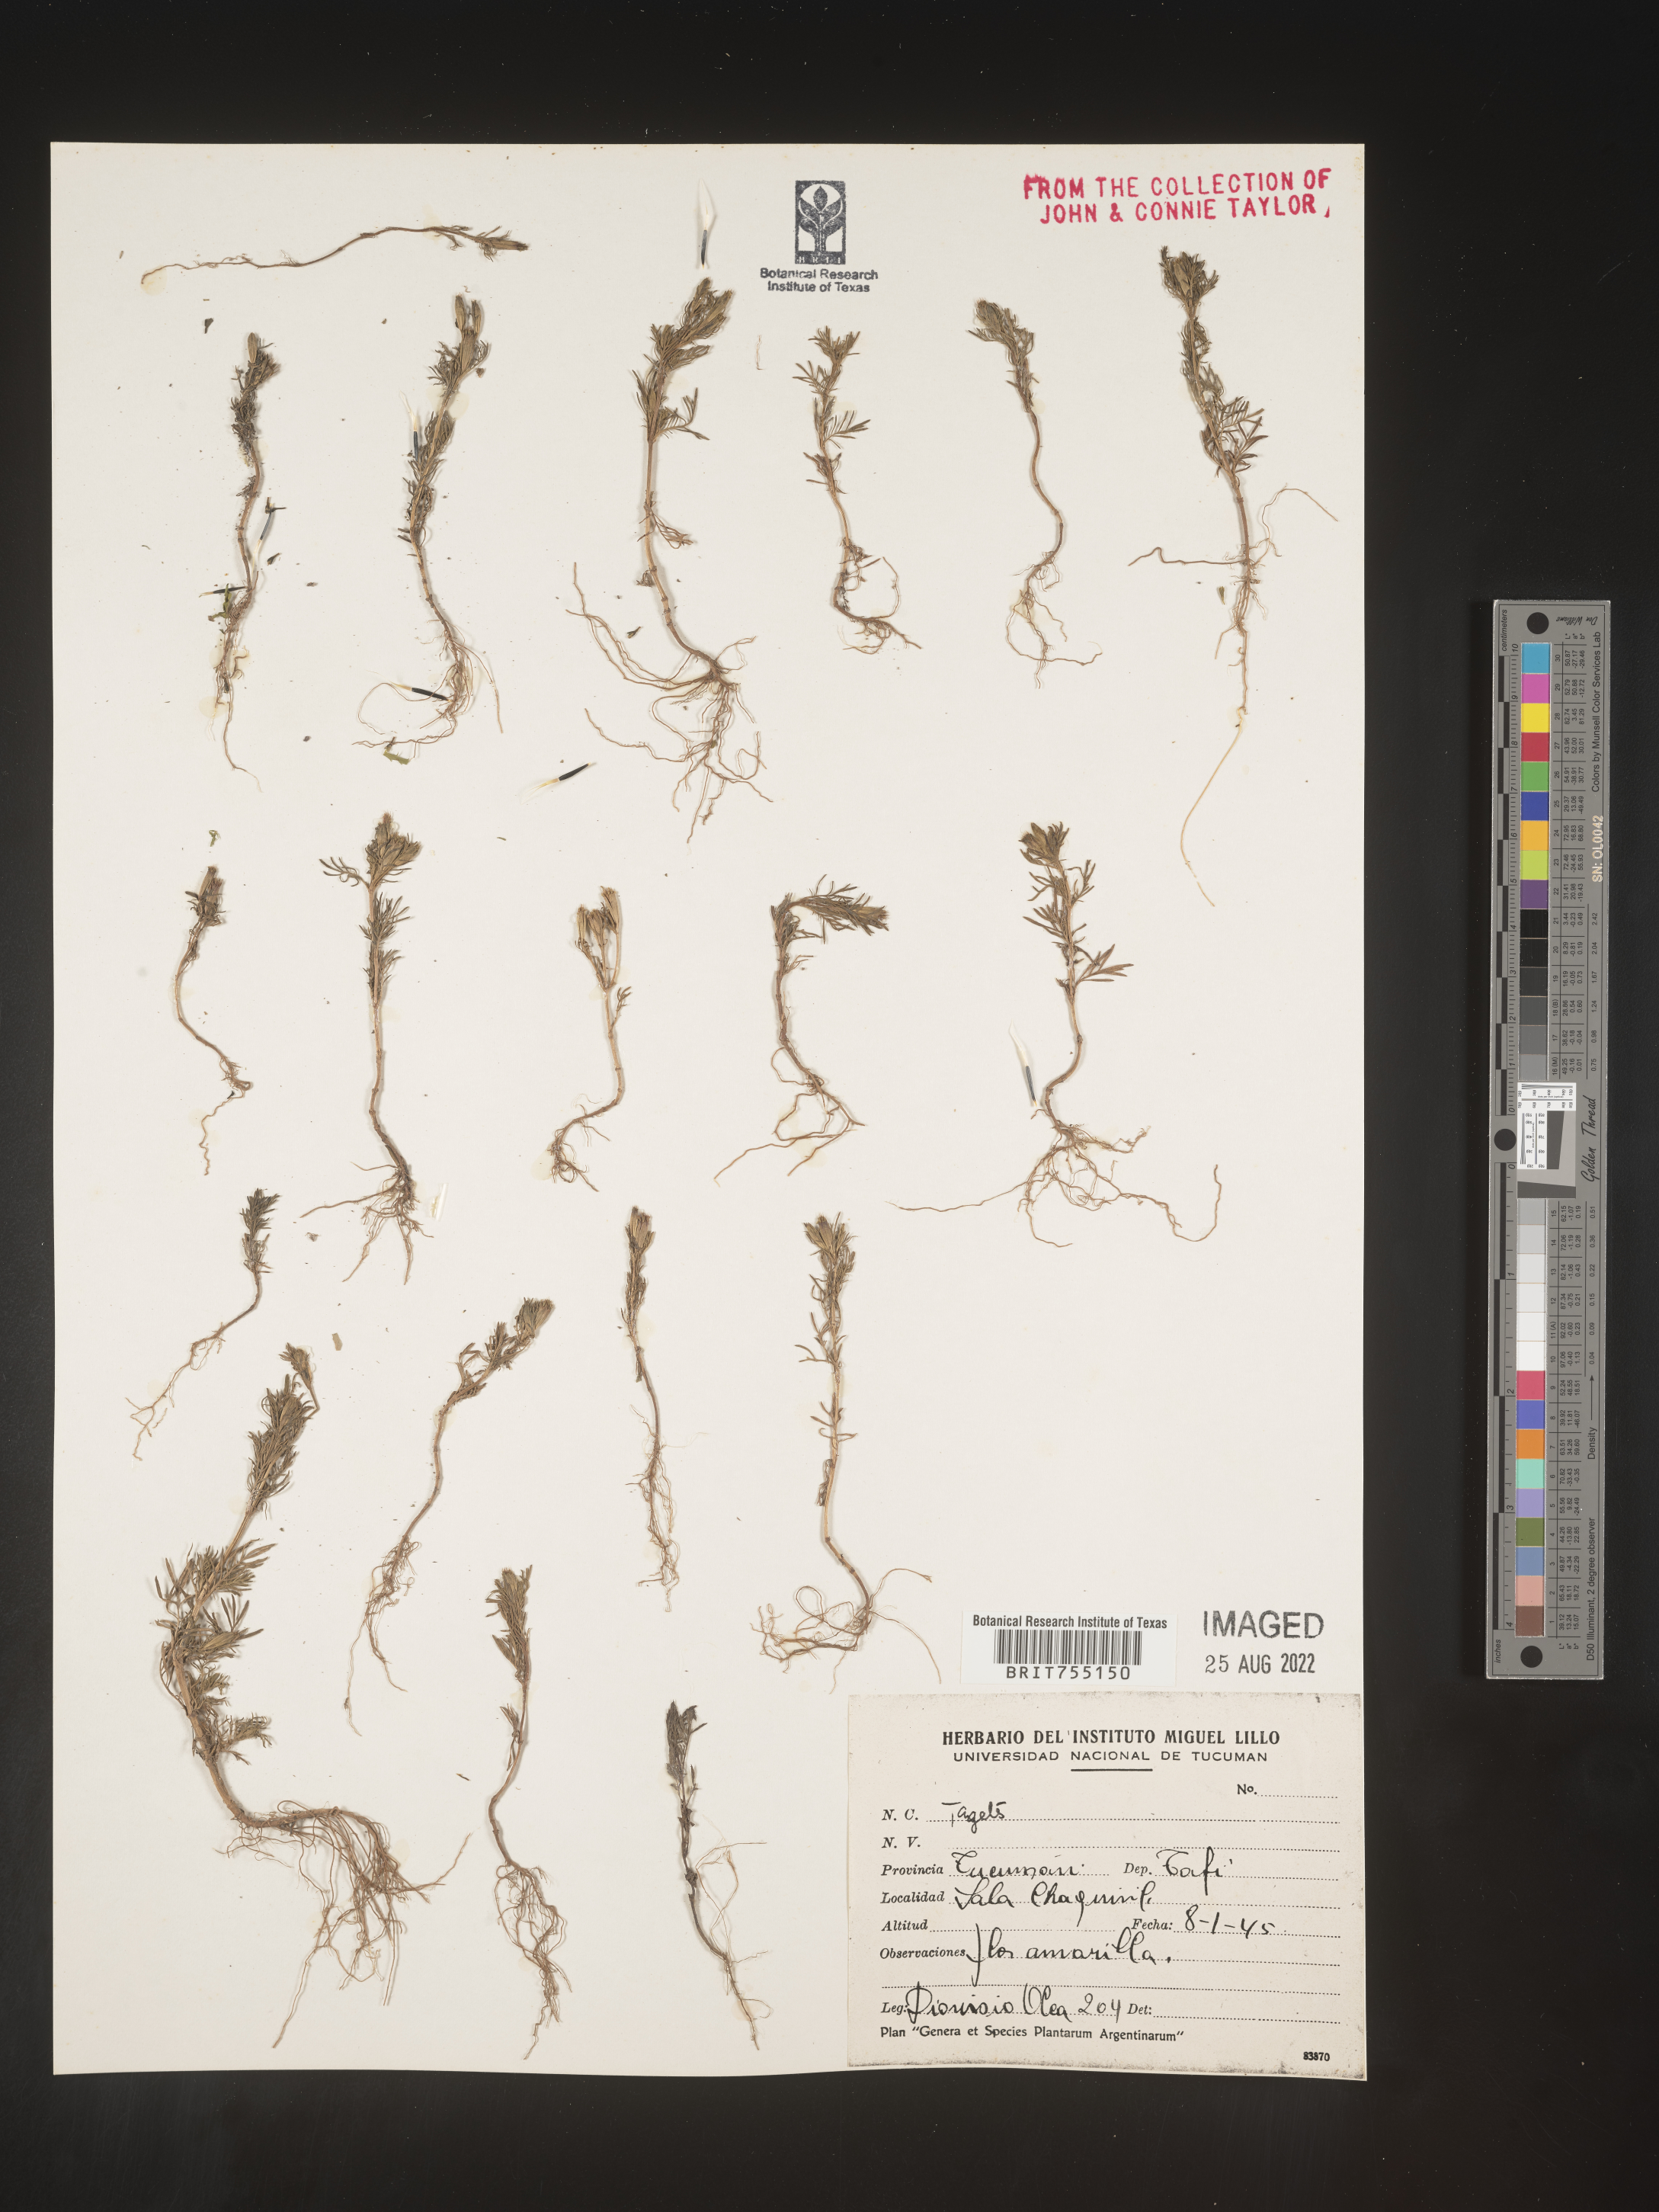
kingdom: Plantae
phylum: Tracheophyta
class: Magnoliopsida
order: Asterales
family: Asteraceae
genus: Tagetes
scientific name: Tagetes
